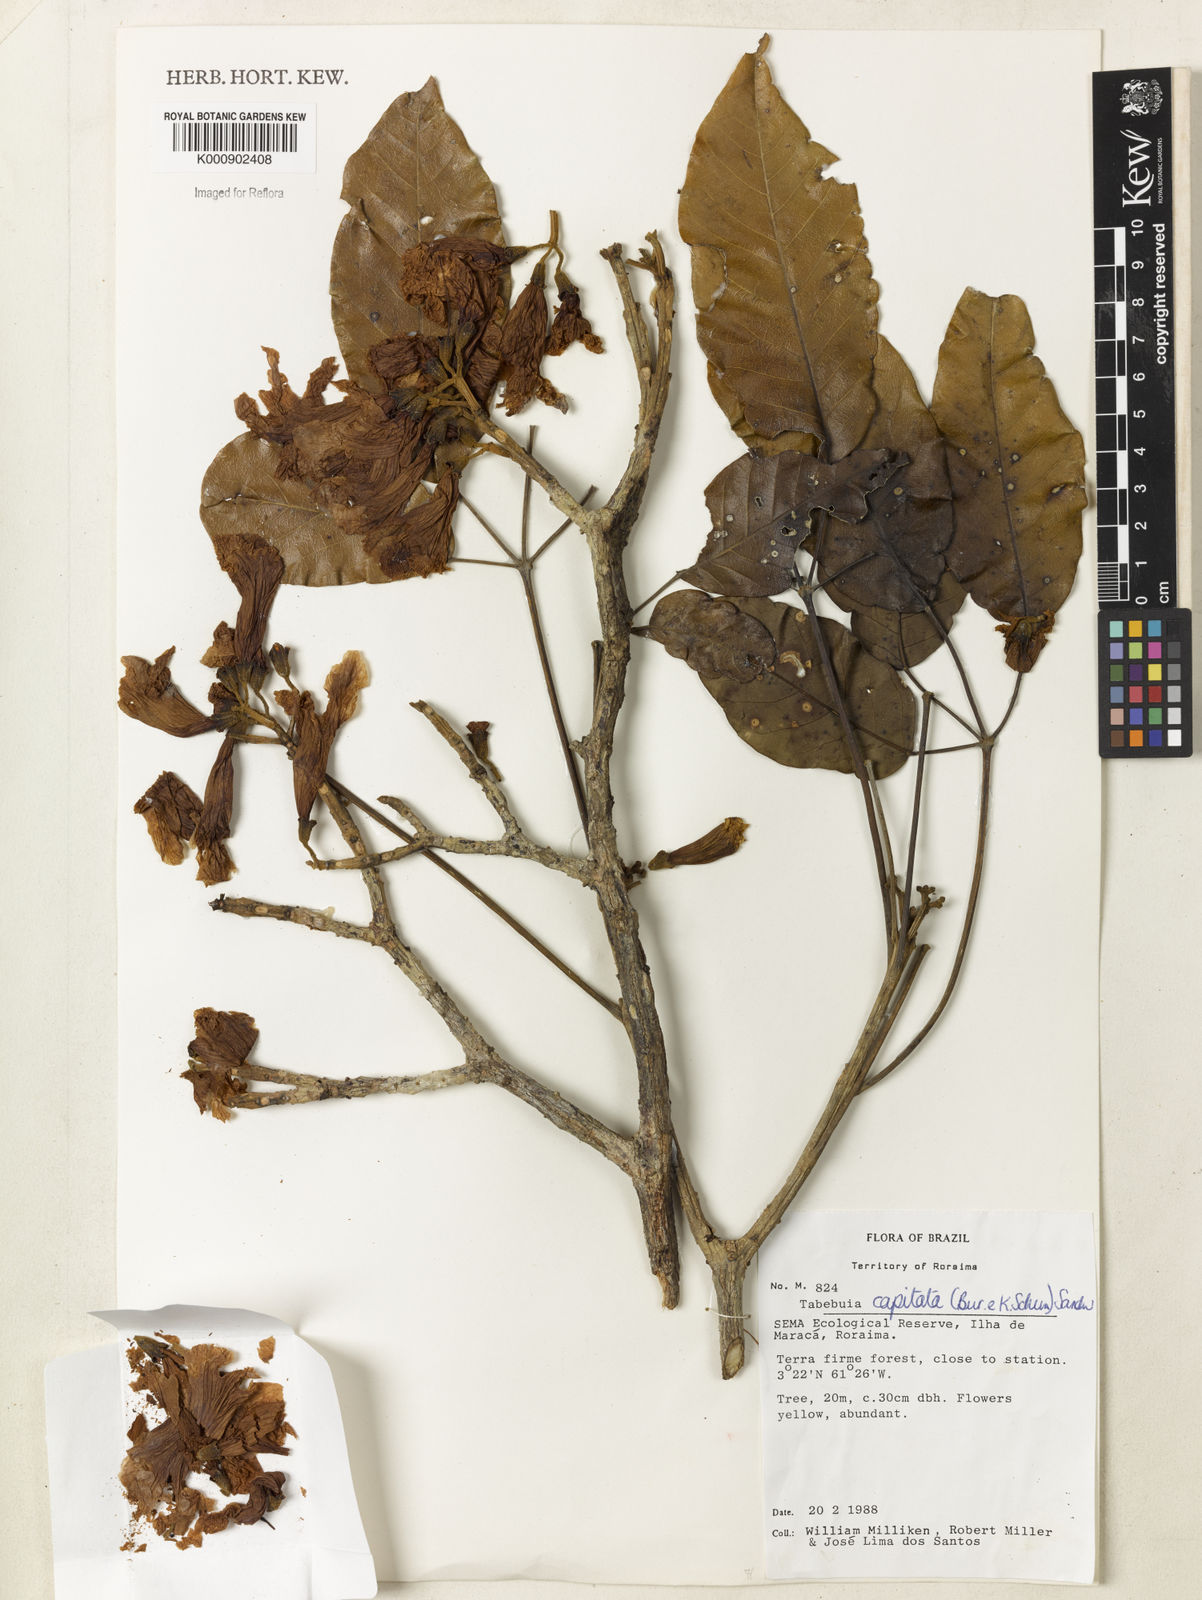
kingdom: Plantae
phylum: Tracheophyta
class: Magnoliopsida
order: Lamiales
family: Bignoniaceae
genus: Handroanthus
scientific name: Handroanthus capitatus
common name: Trumpet trees
